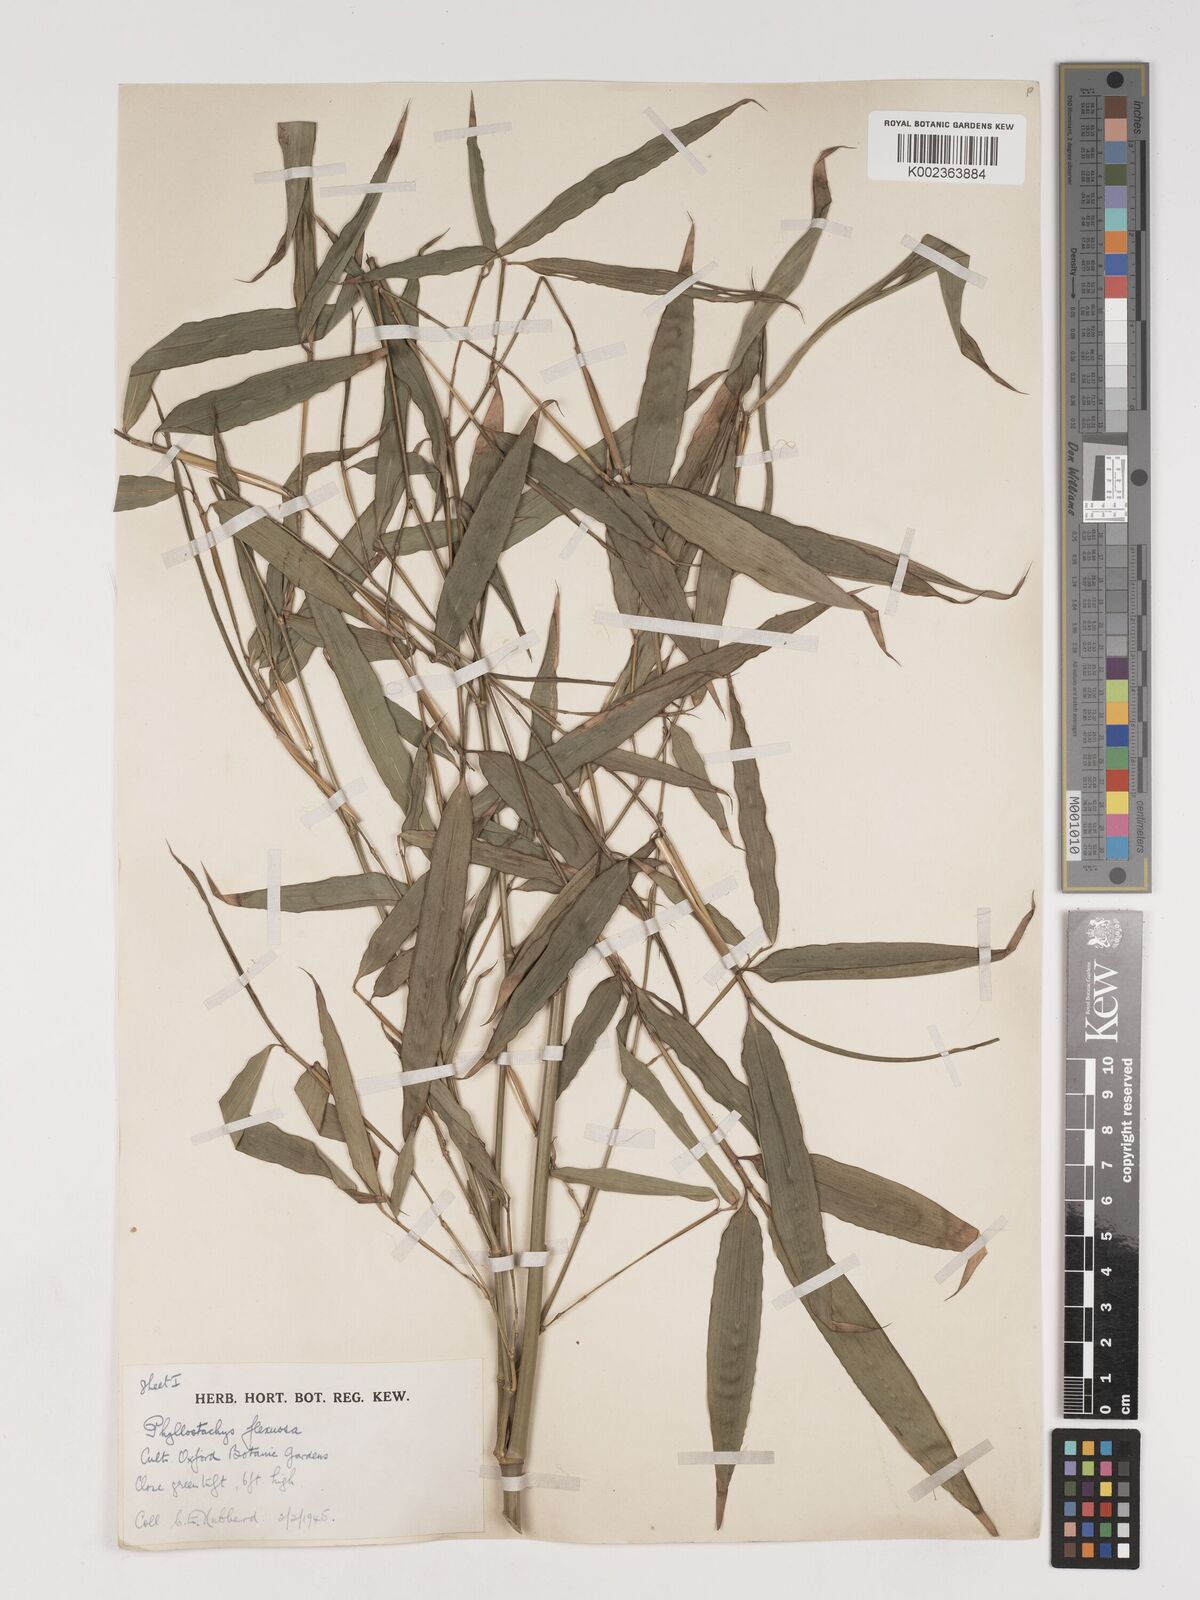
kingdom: Plantae
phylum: Tracheophyta
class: Liliopsida
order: Poales
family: Poaceae
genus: Phyllostachys
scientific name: Phyllostachys flexuosa
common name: Drooping timber bamboo
